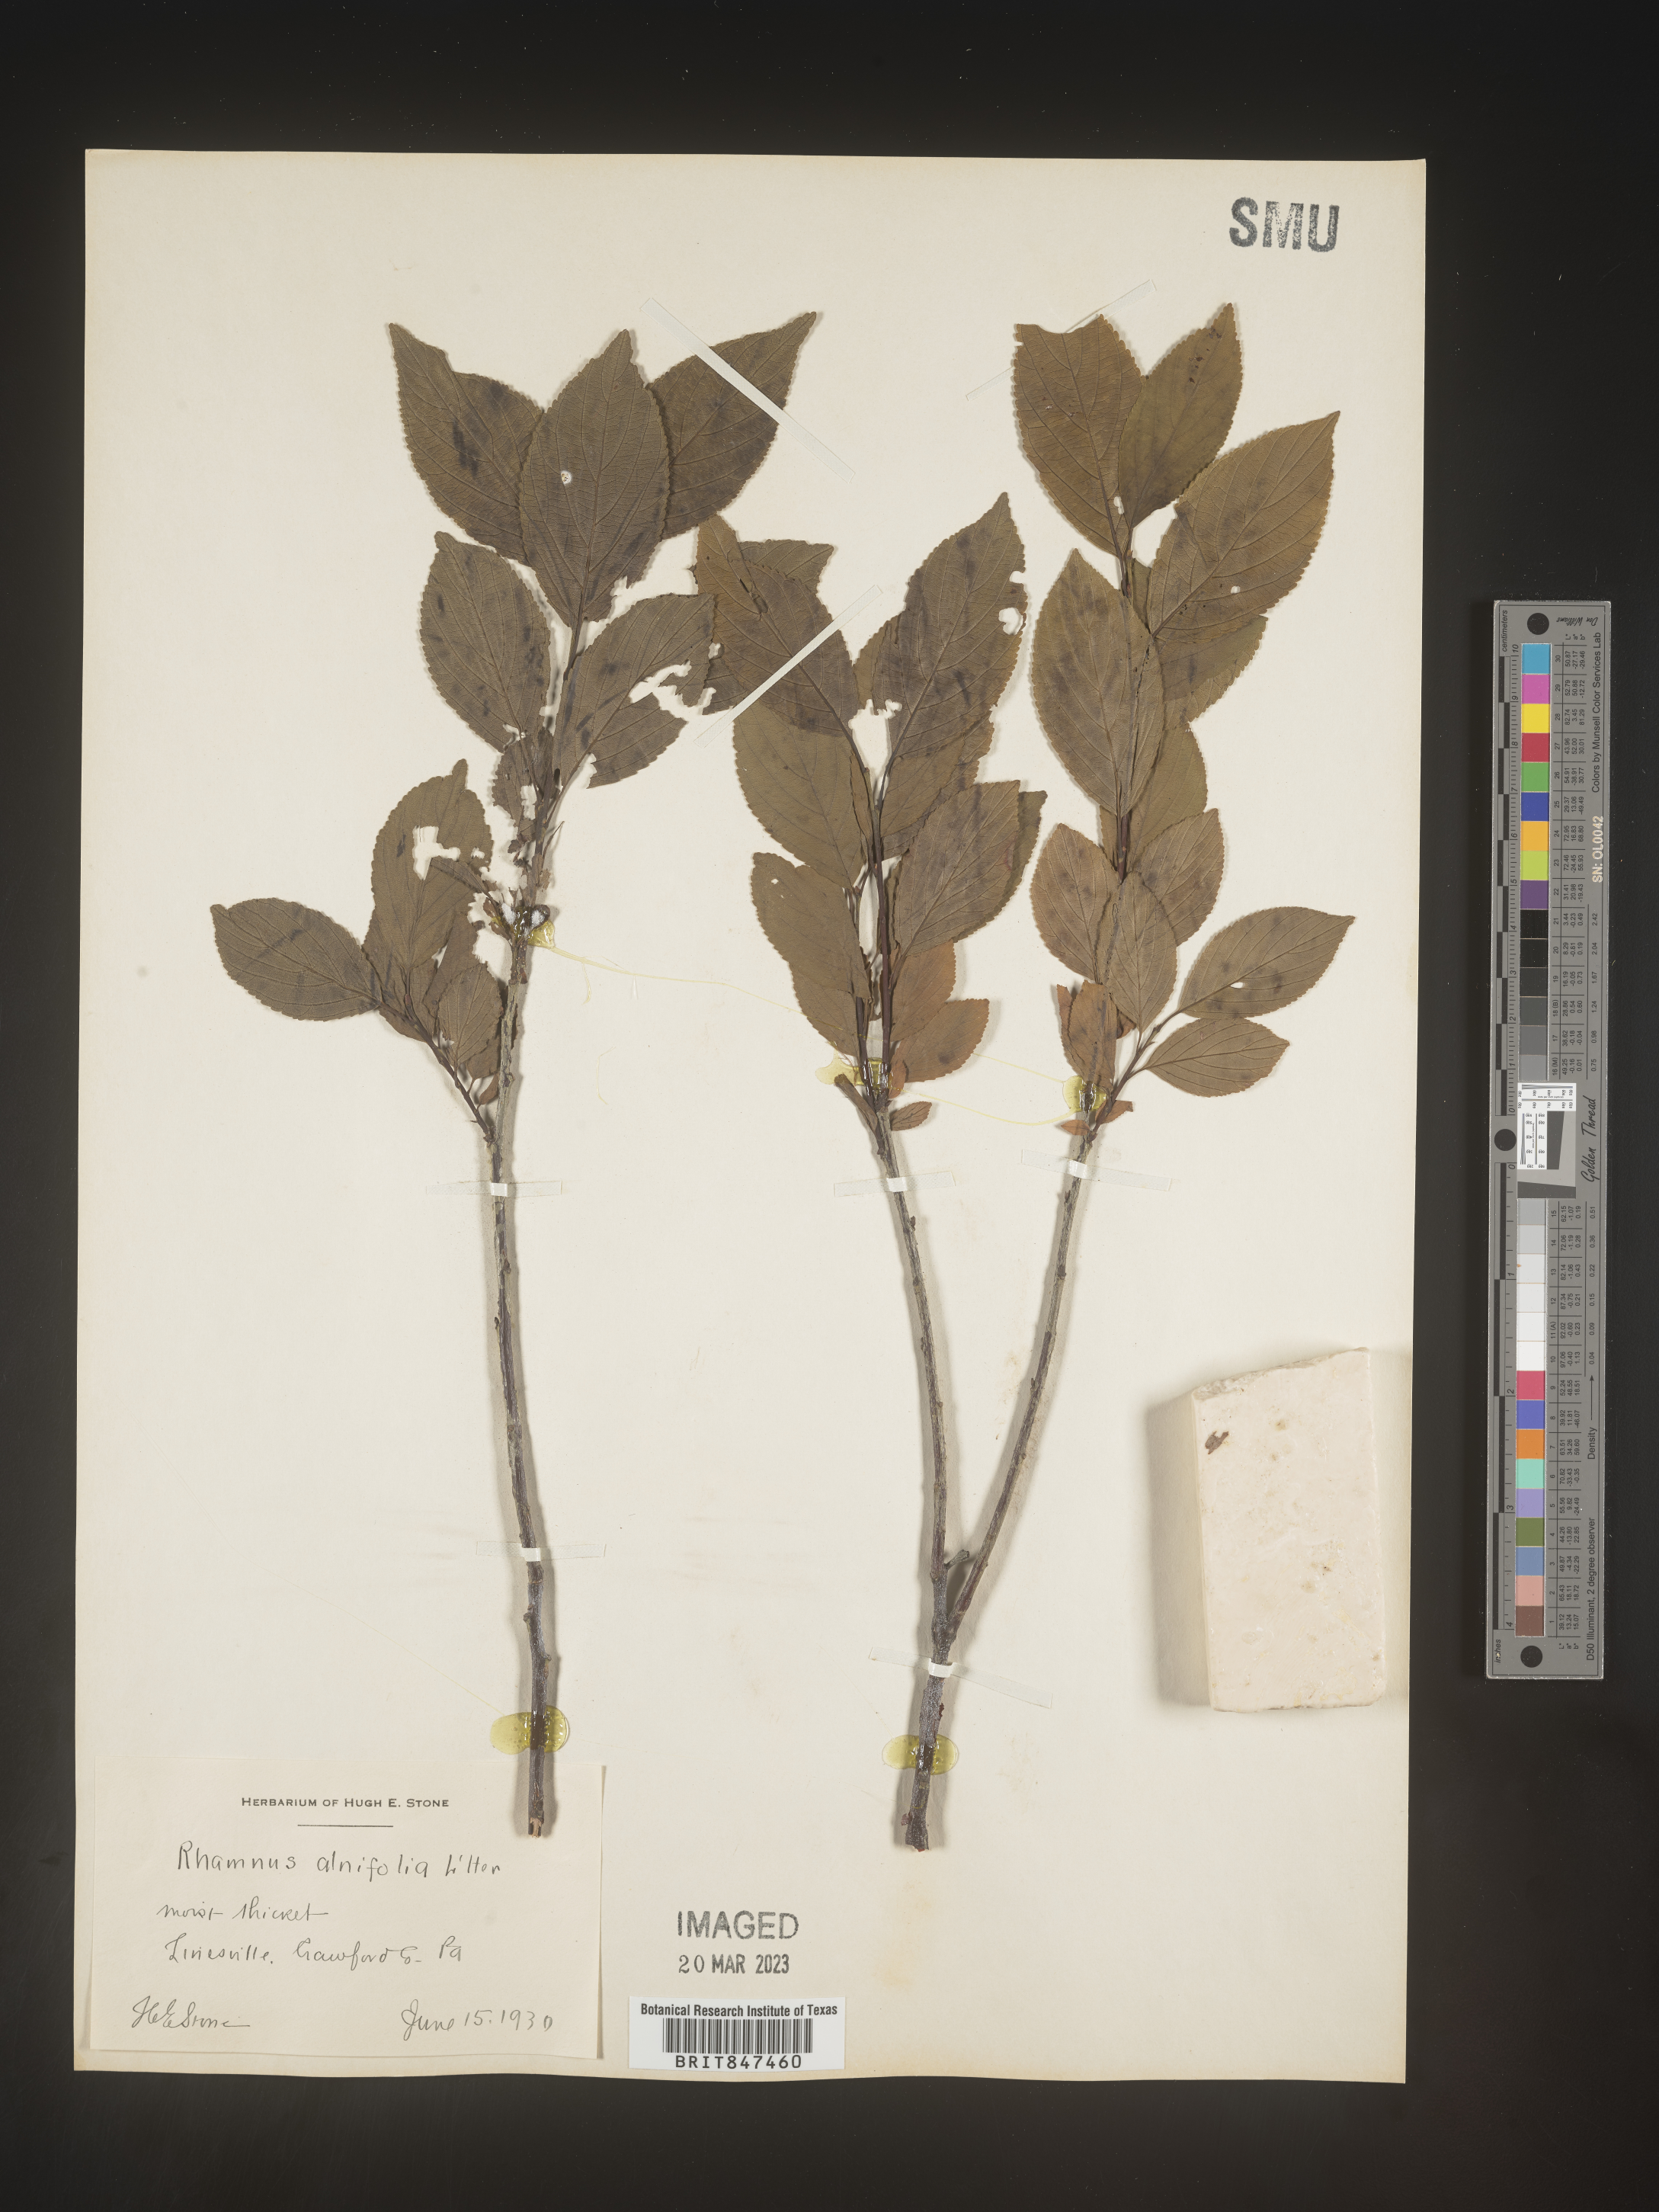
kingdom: Plantae
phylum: Tracheophyta
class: Magnoliopsida
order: Rosales
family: Rhamnaceae
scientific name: Rhamnaceae
